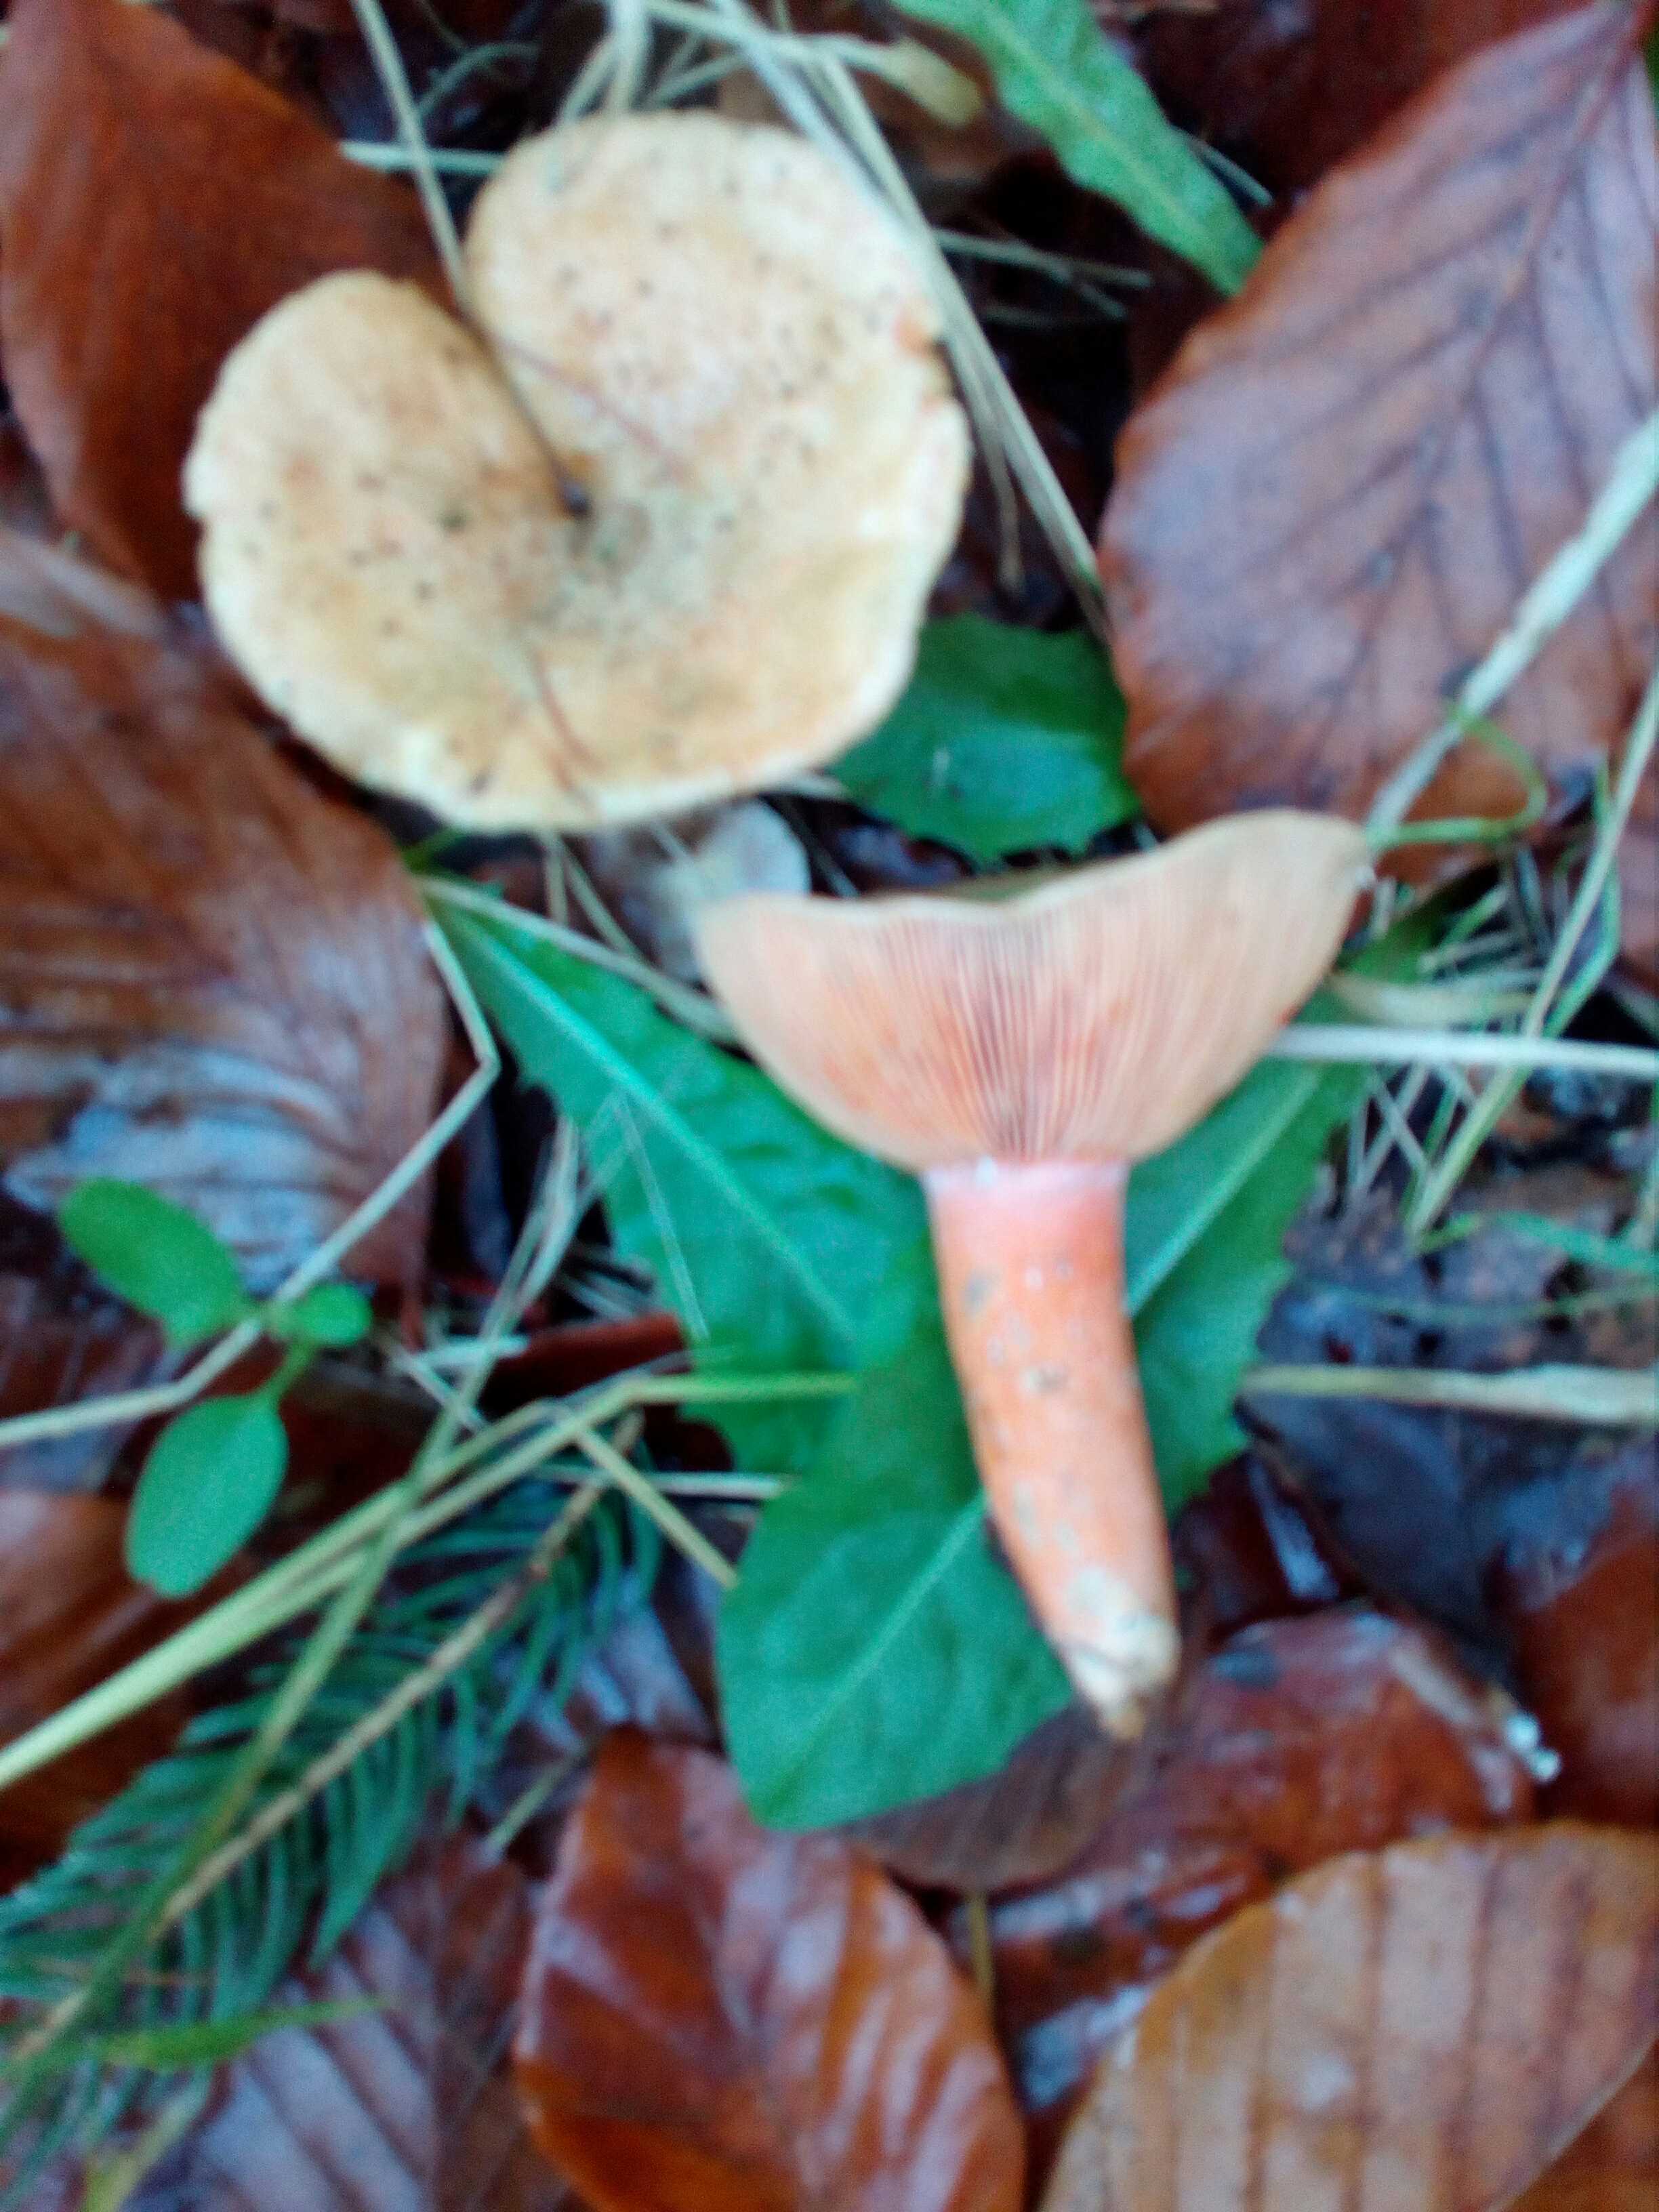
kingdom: Fungi
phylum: Basidiomycota
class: Agaricomycetes
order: Russulales
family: Russulaceae
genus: Lactarius
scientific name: Lactarius deterrimus
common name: gran-mælkehat
